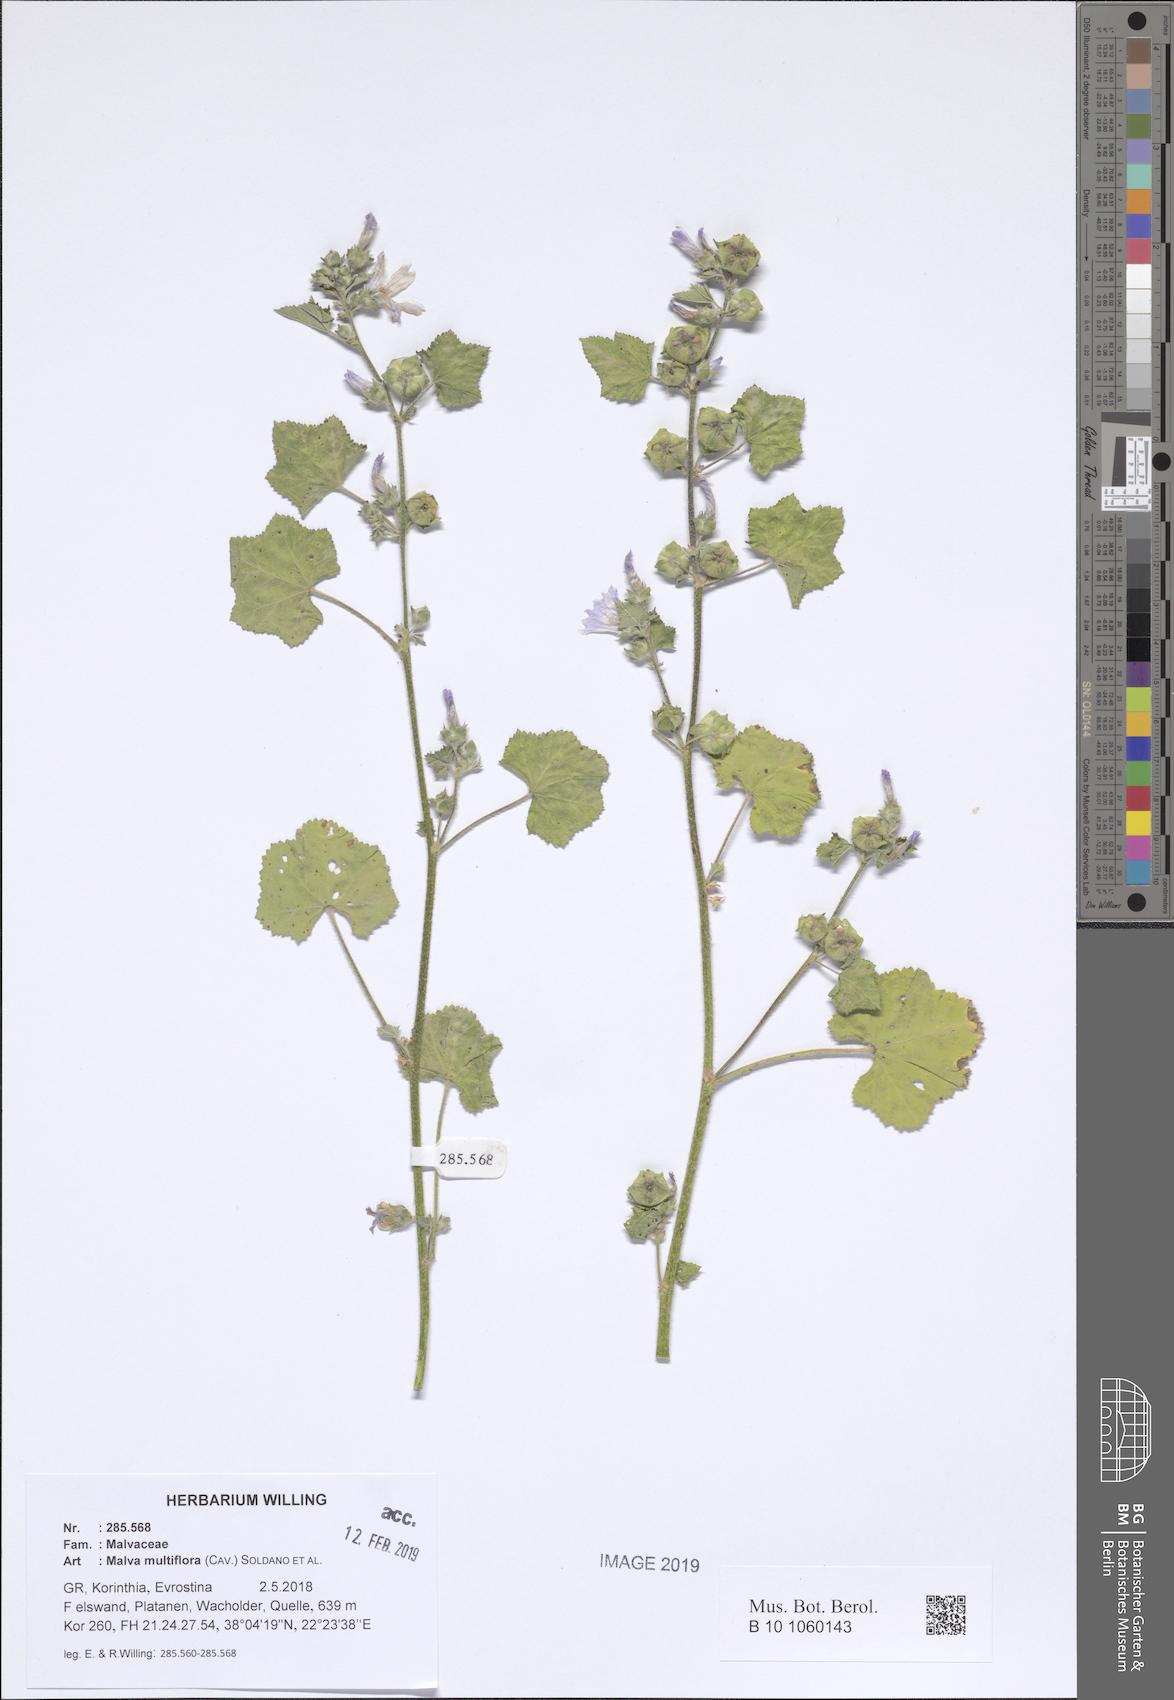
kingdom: Plantae
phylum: Tracheophyta
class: Magnoliopsida
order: Malvales
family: Malvaceae
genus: Malva
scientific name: Malva multiflora
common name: Cheeseweed
